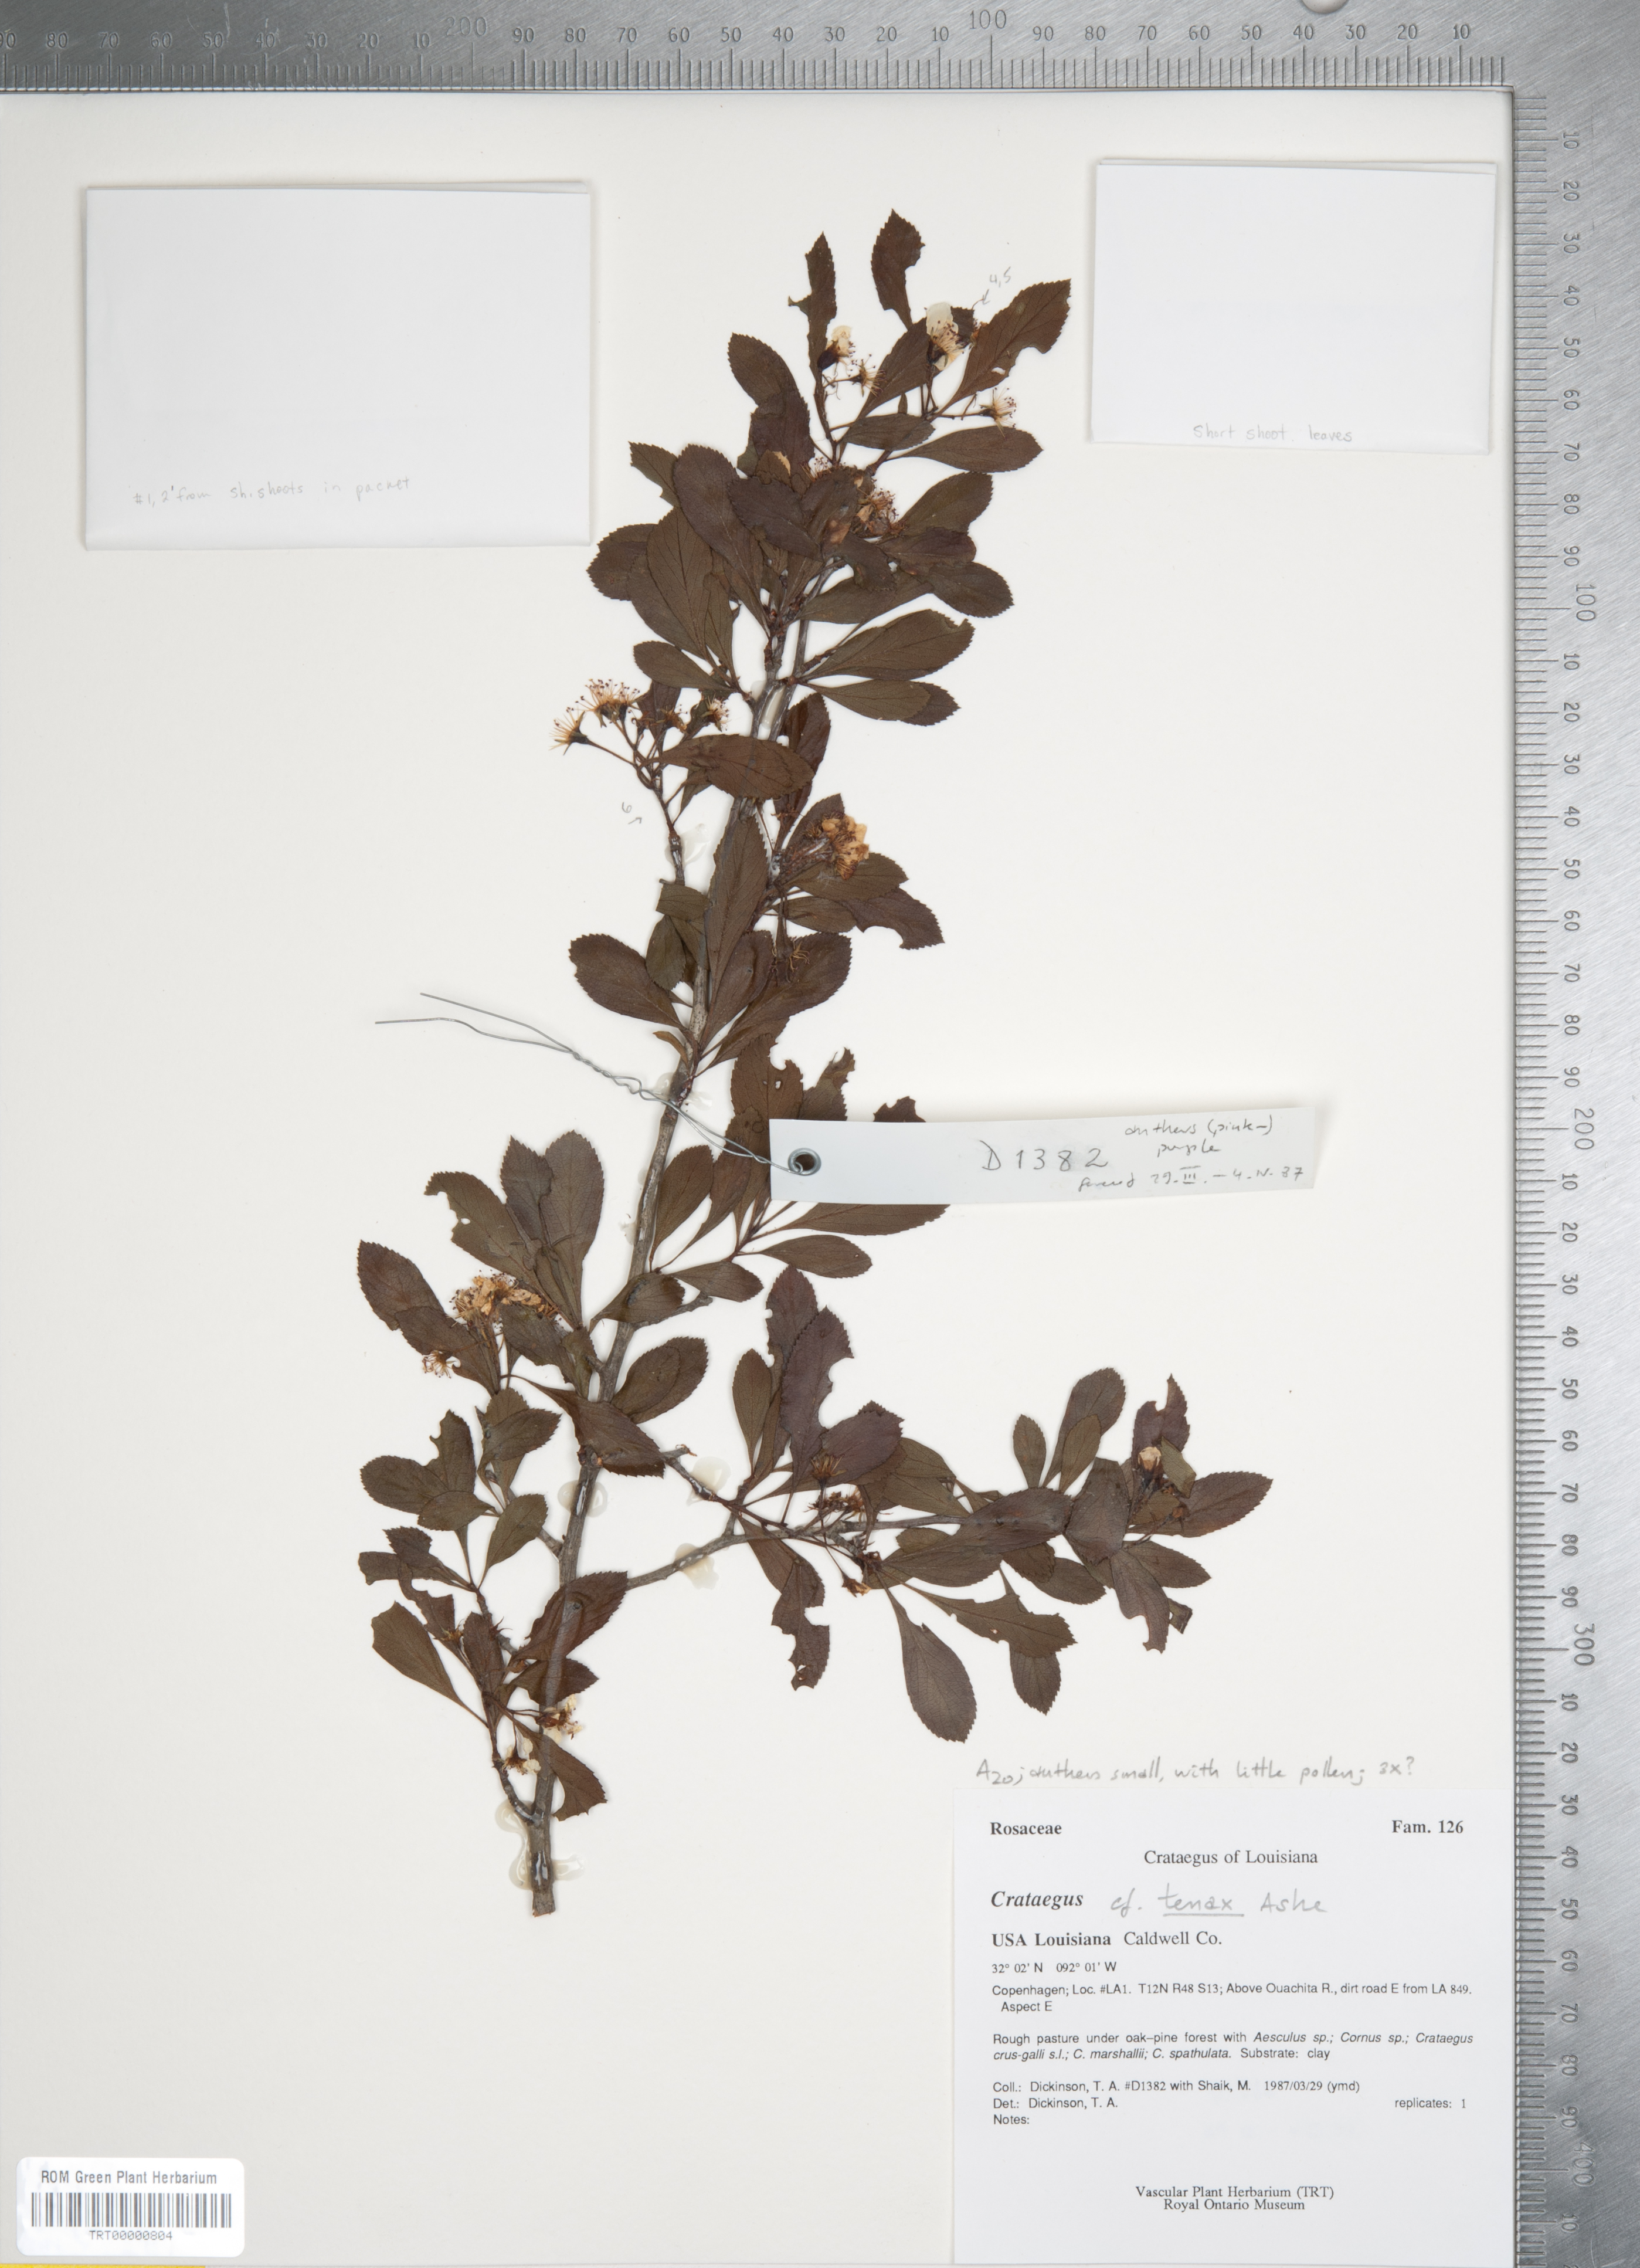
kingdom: Plantae
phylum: Tracheophyta
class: Magnoliopsida
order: Rosales
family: Rosaceae
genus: Crataegus
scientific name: Crataegus crus-galli
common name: Cockspurthorn
